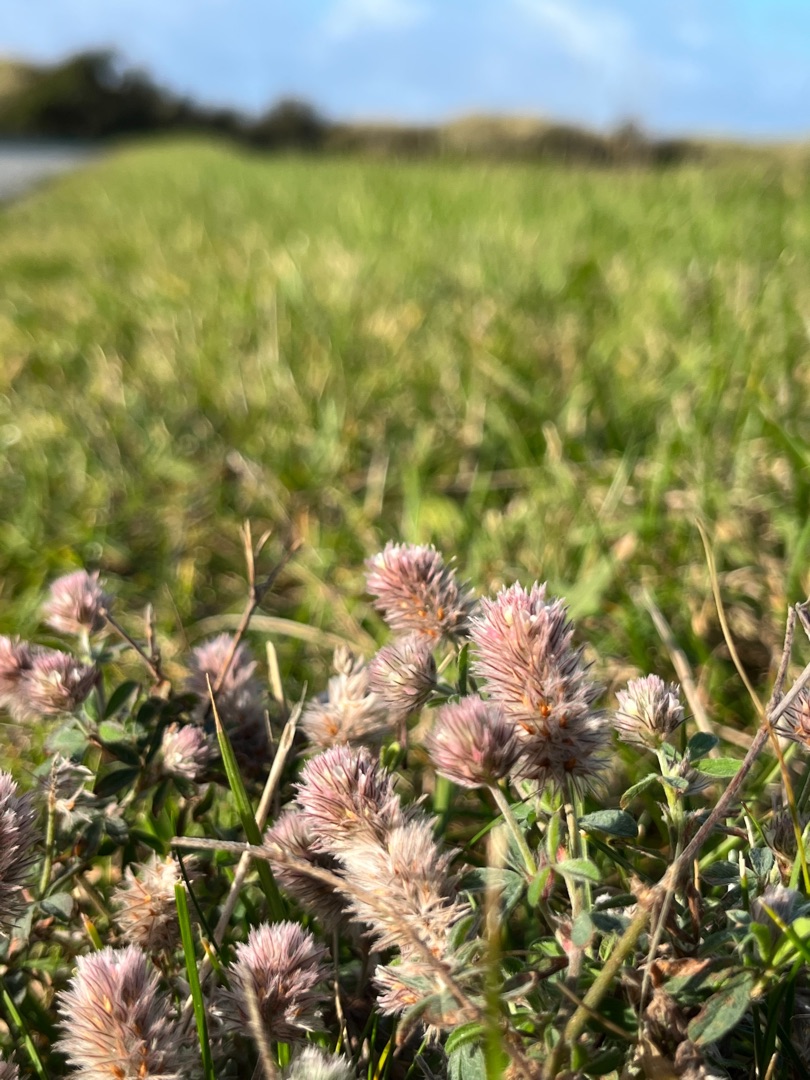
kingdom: Plantae
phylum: Tracheophyta
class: Magnoliopsida
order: Fabales
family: Fabaceae
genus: Trifolium
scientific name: Trifolium arvense
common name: Hare-kløver
